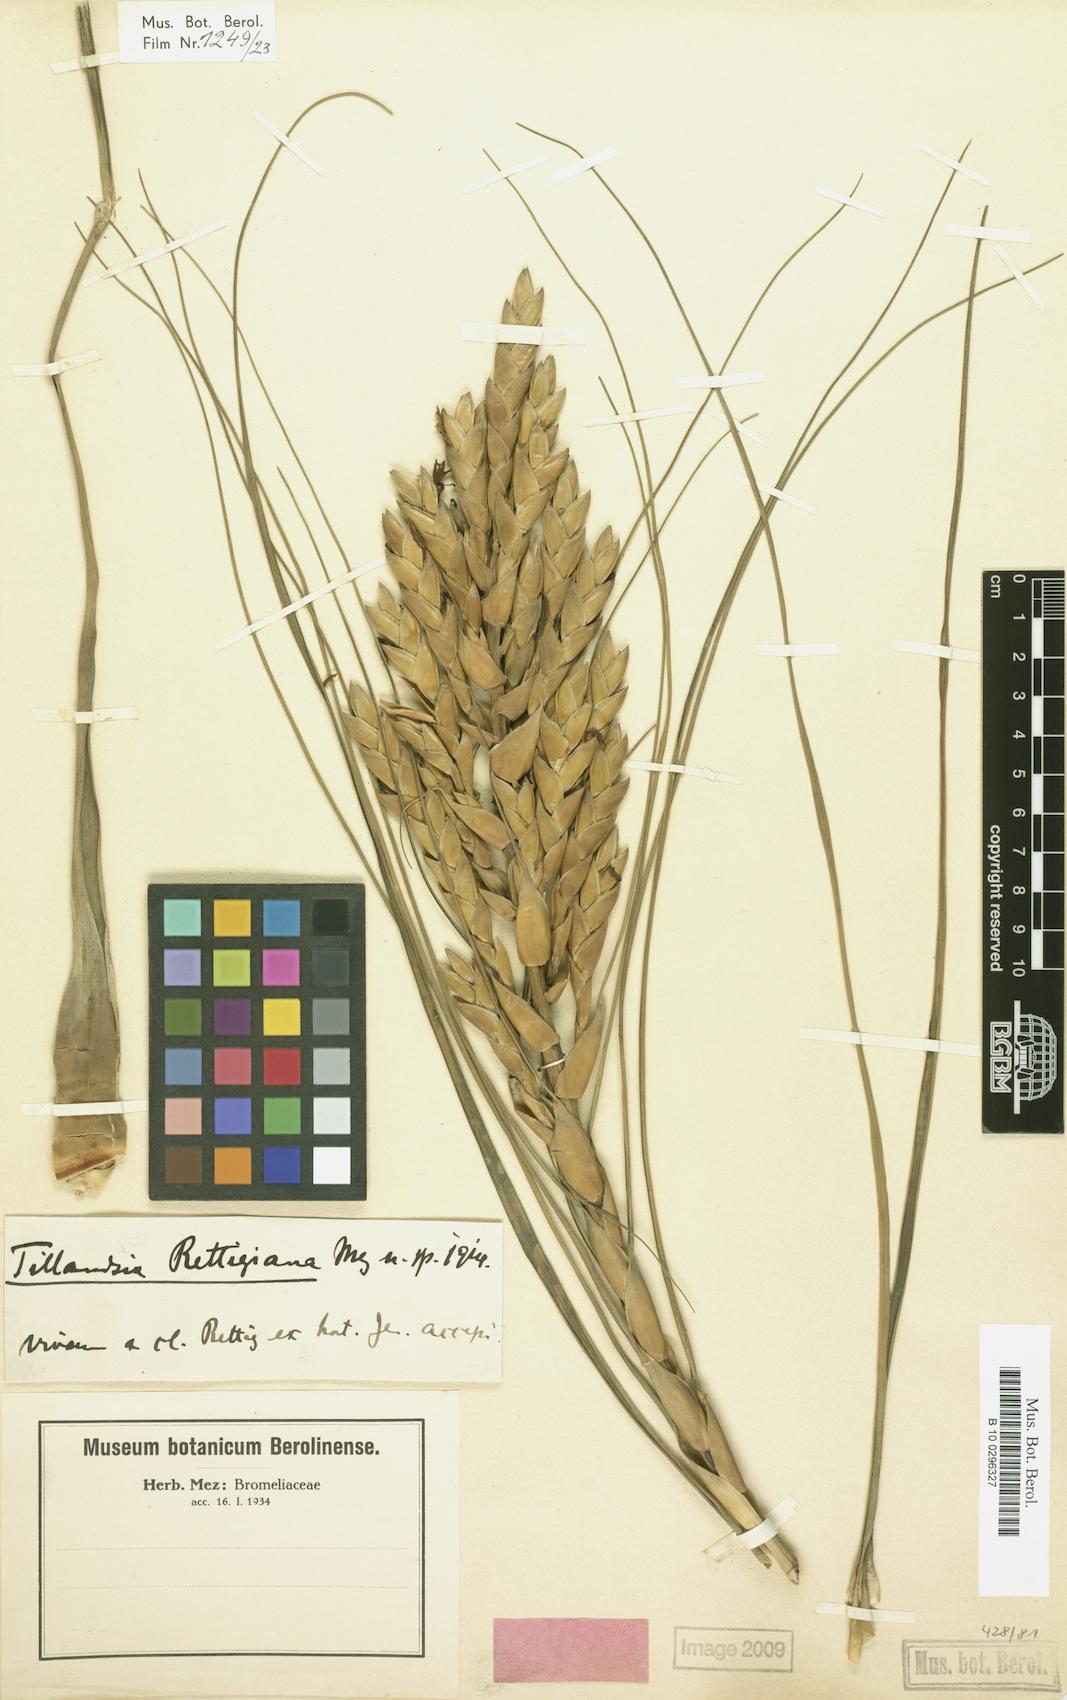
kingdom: Plantae
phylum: Tracheophyta
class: Liliopsida
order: Poales
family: Bromeliaceae
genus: Tillandsia
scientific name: Tillandsia rettigiana
